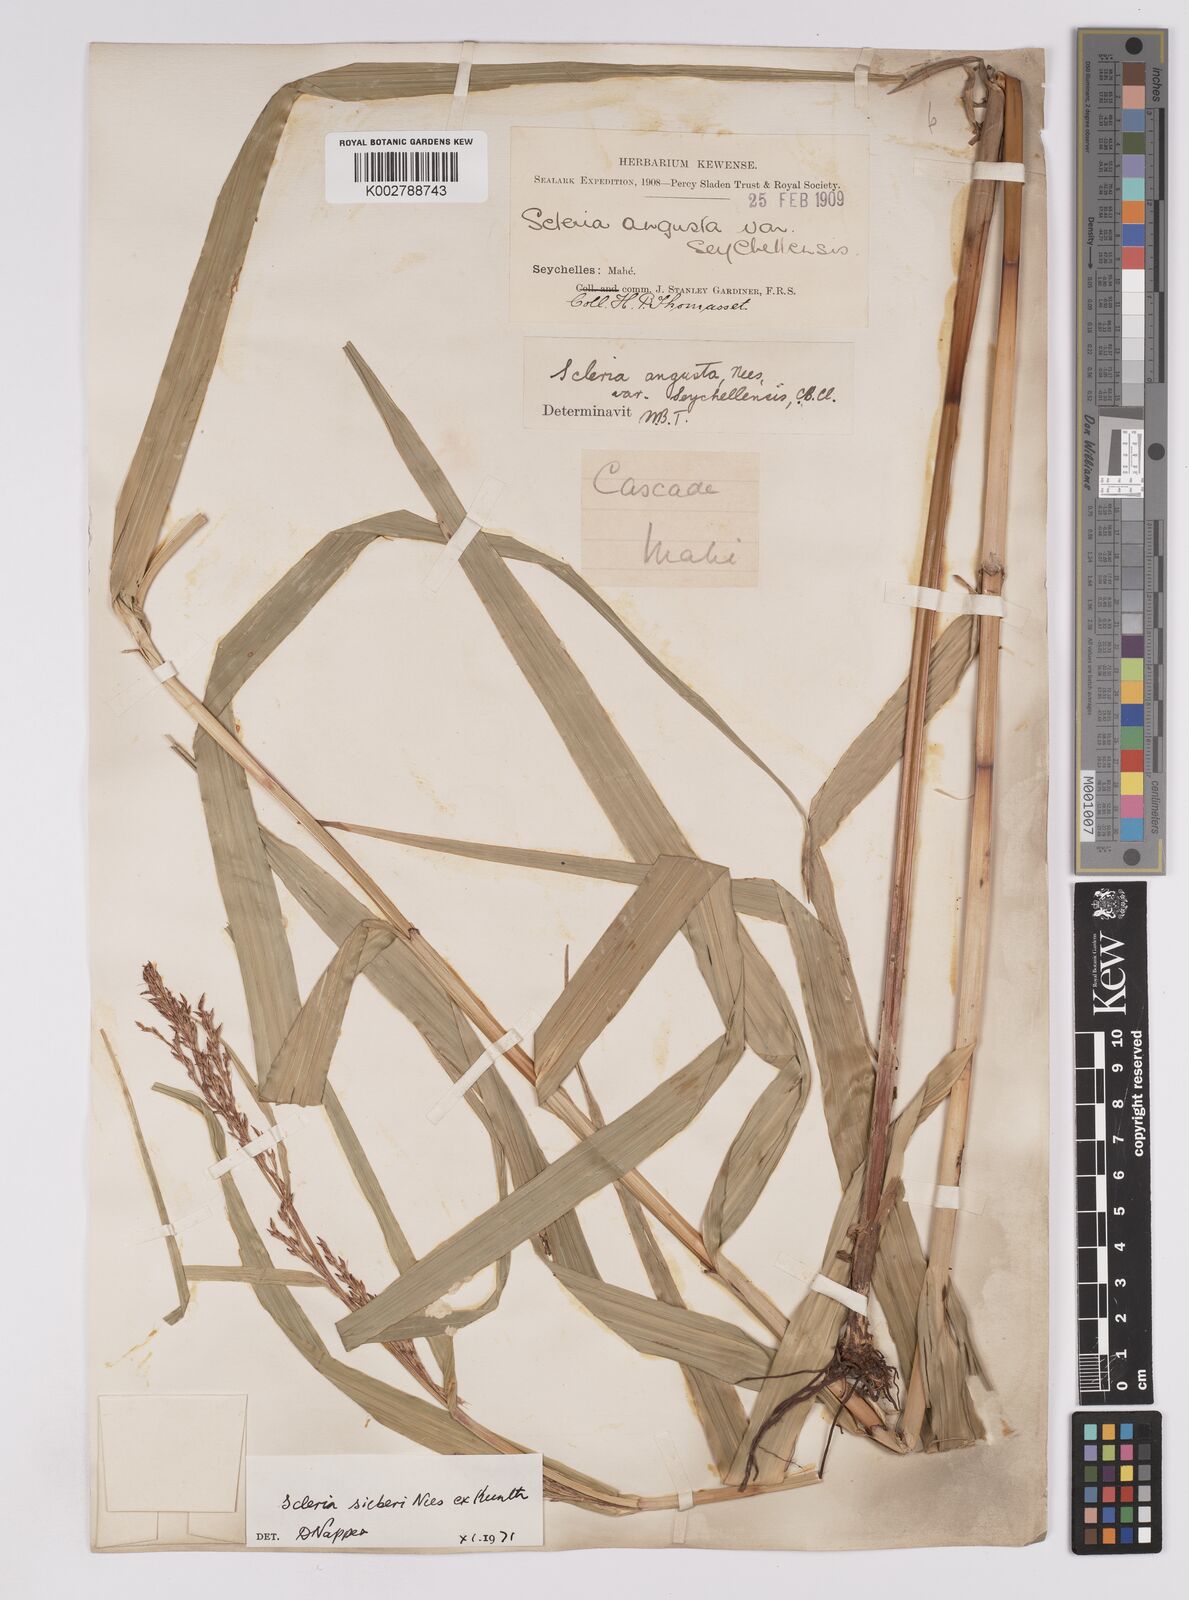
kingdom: Plantae
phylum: Tracheophyta
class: Liliopsida
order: Poales
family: Cyperaceae
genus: Scleria
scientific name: Scleria gaertneri
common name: Cortadera blanca
